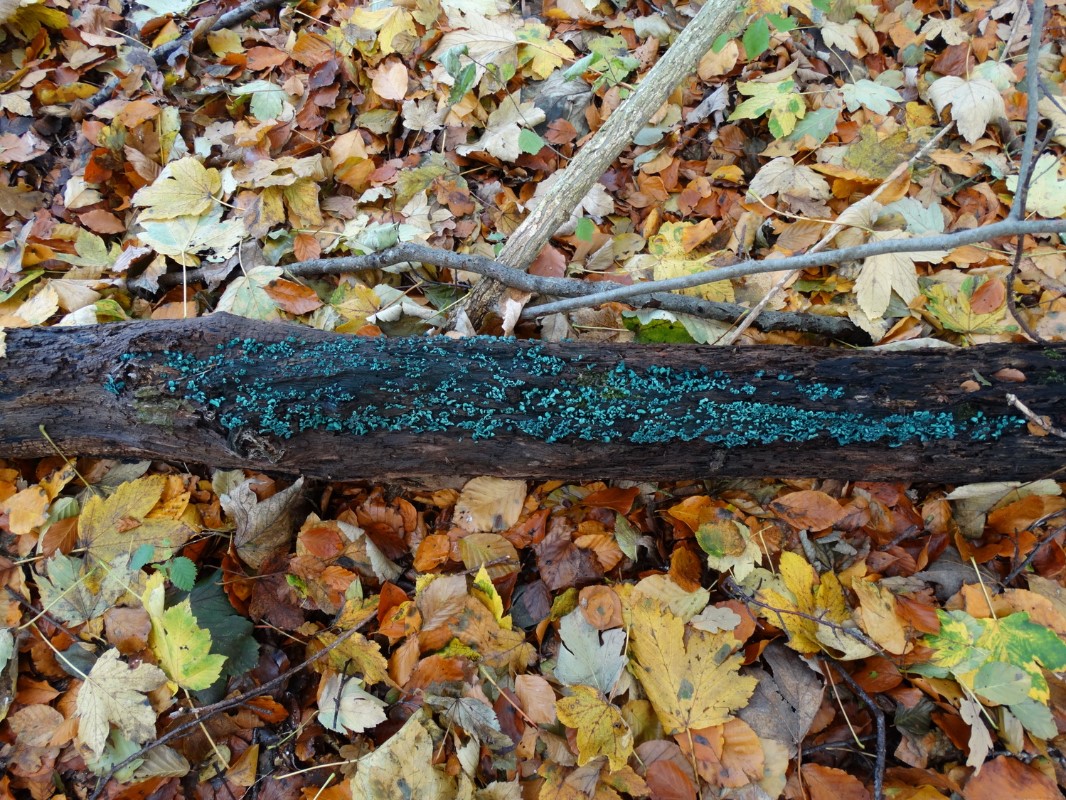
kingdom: Fungi
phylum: Ascomycota
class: Leotiomycetes
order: Helotiales
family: Chlorociboriaceae
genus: Chlorociboria
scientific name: Chlorociboria aeruginascens
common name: almindelig grønskive
